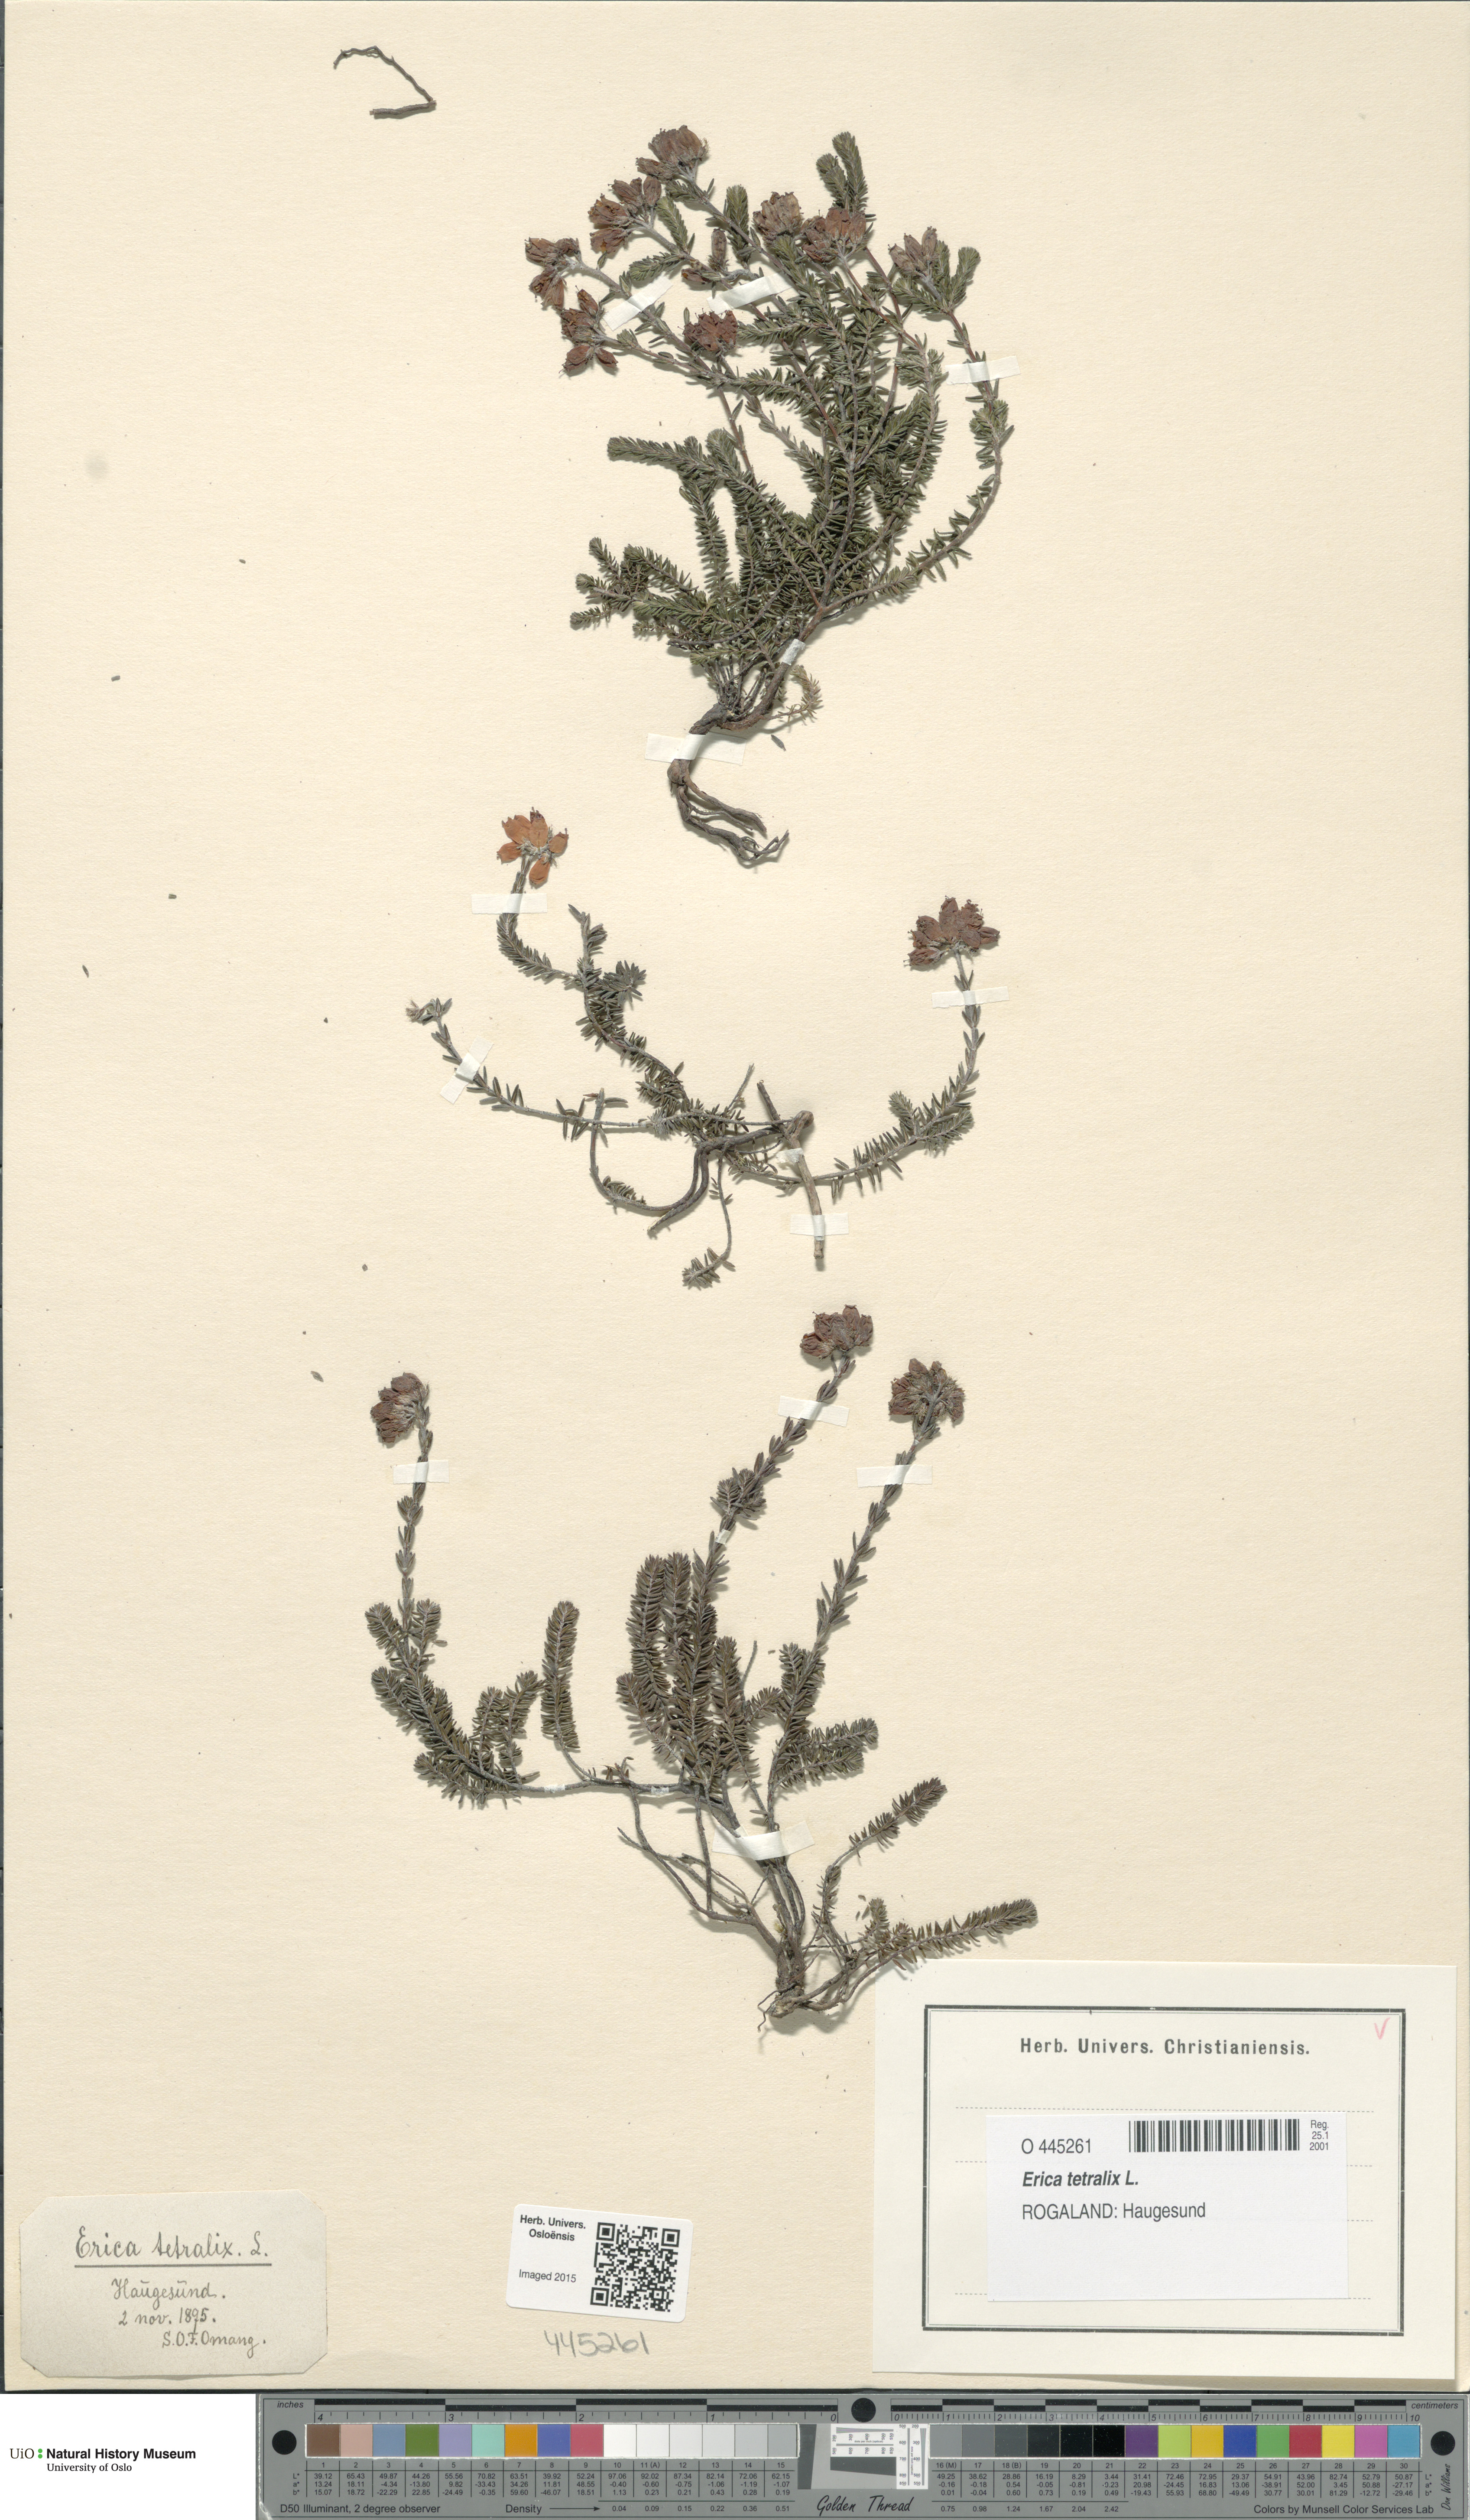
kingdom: Plantae
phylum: Tracheophyta
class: Magnoliopsida
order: Ericales
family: Ericaceae
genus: Erica
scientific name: Erica tetralix
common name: Cross-leaved heath
